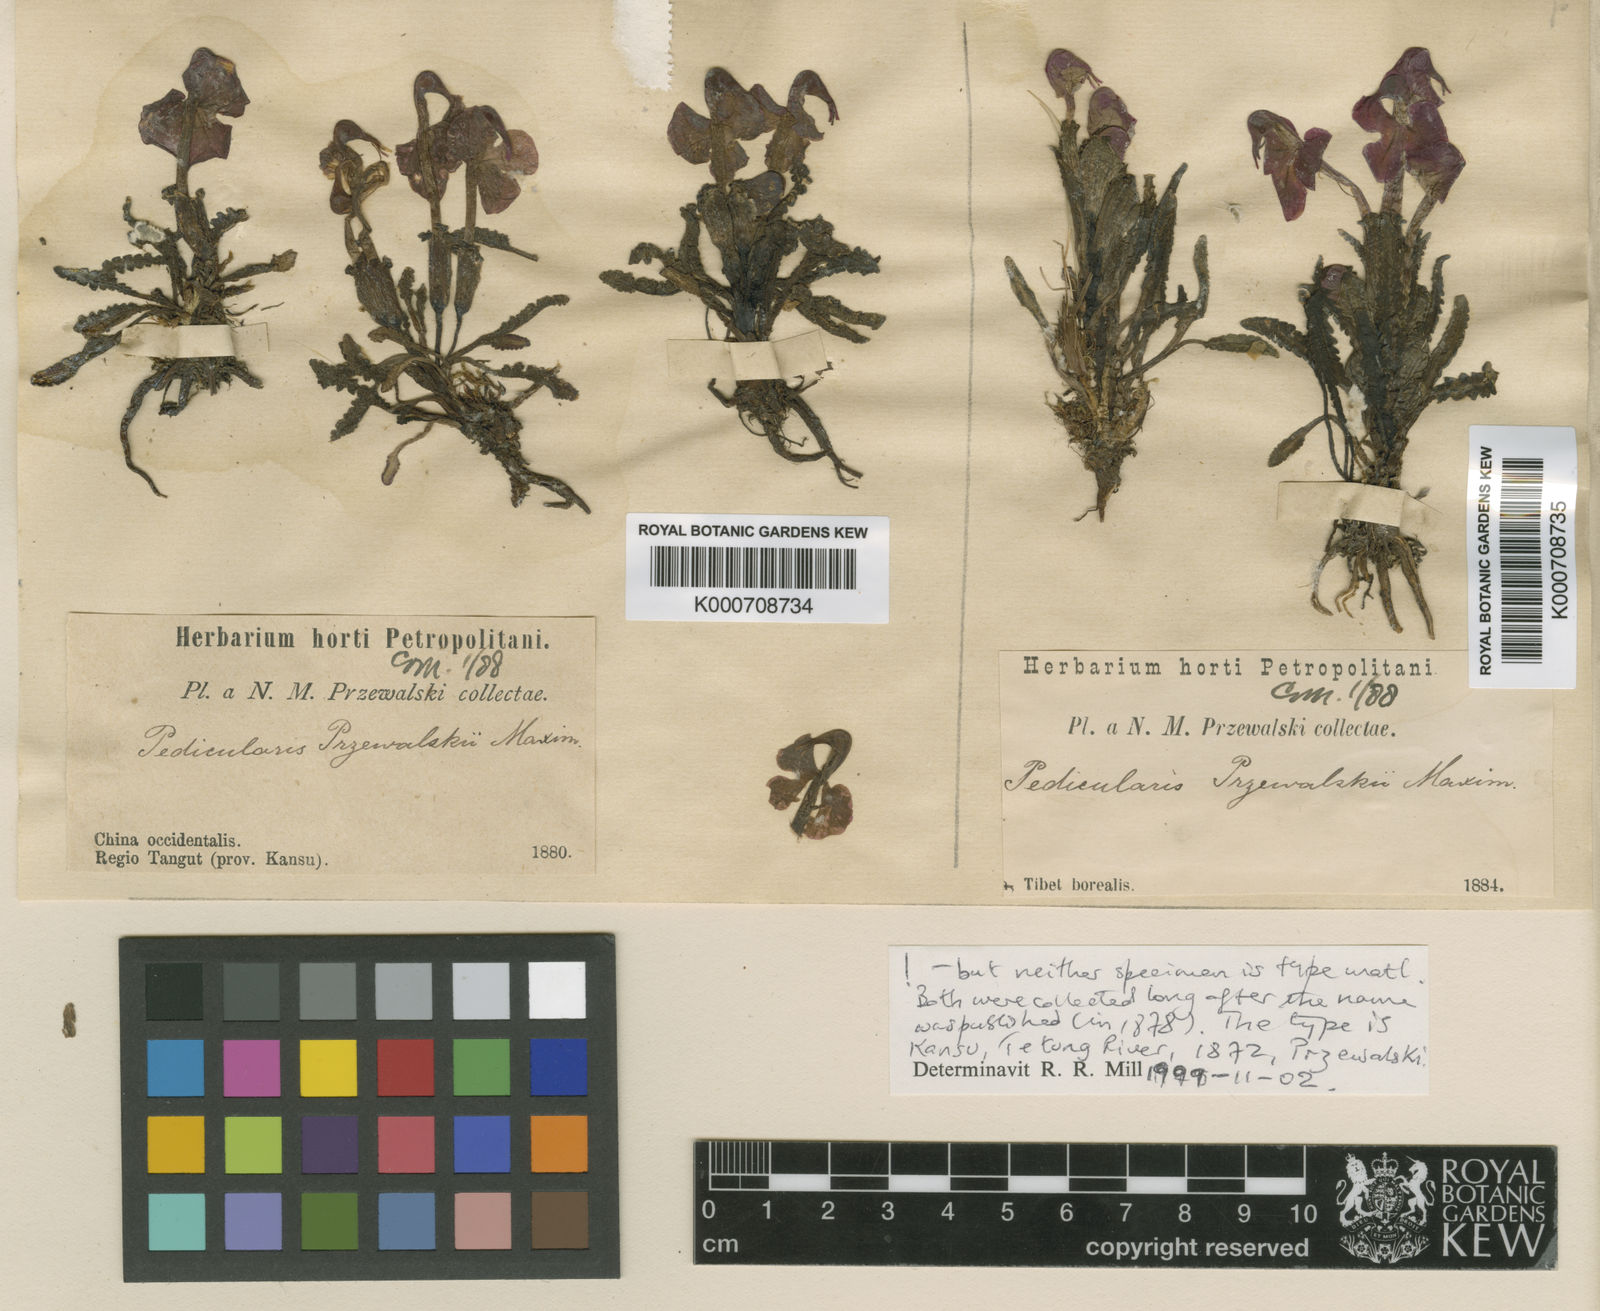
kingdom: Plantae
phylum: Tracheophyta
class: Magnoliopsida
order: Lamiales
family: Orobanchaceae
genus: Pedicularis
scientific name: Pedicularis przewalskii
